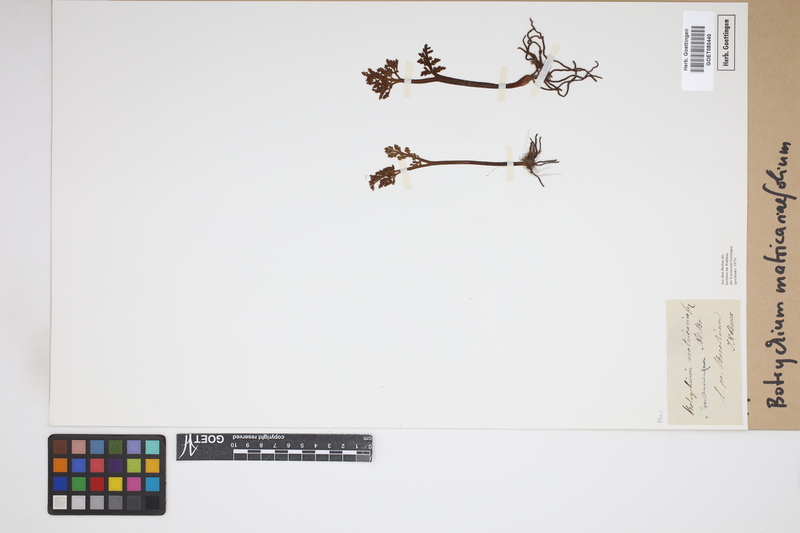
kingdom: Plantae
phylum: Tracheophyta
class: Polypodiopsida
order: Ophioglossales
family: Ophioglossaceae
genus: Botrychium
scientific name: Botrychium matricariifolium
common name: Branched moonwort
